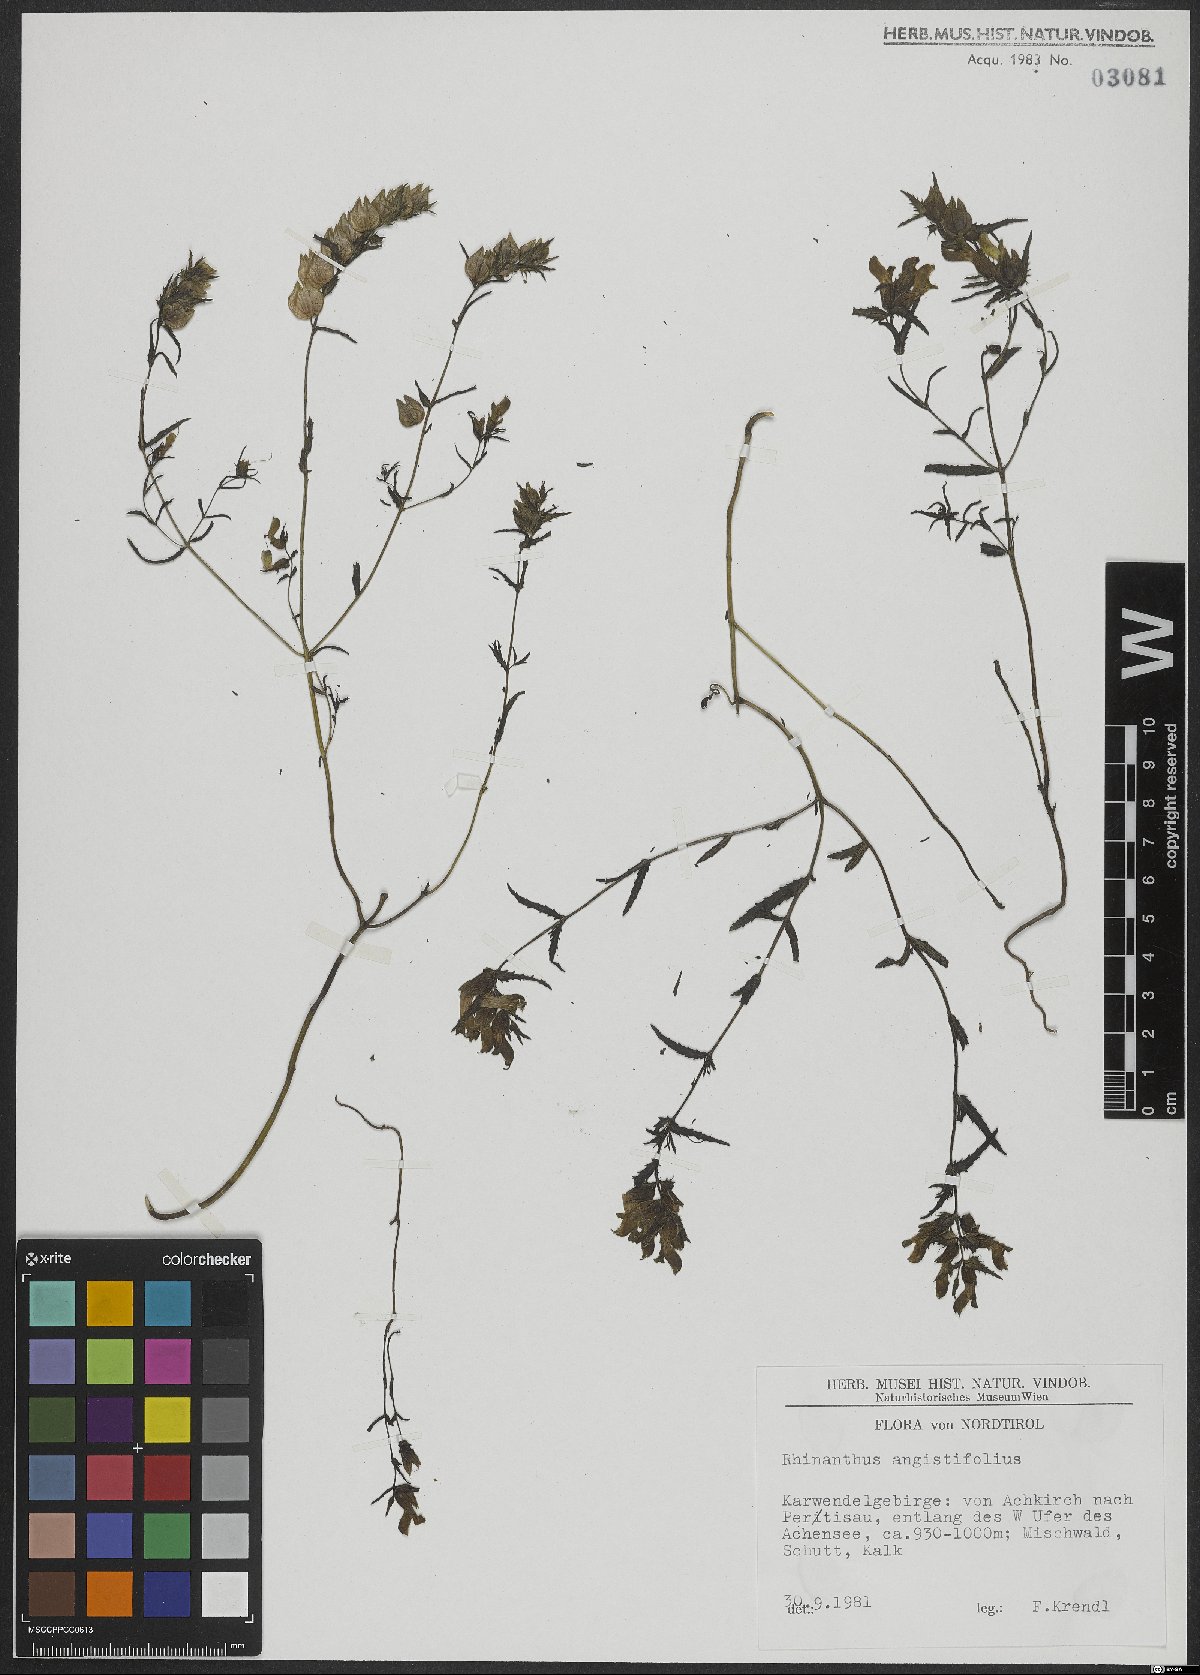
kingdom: Plantae
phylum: Tracheophyta
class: Magnoliopsida
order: Lamiales
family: Orobanchaceae
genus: Rhinanthus
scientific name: Rhinanthus glacialis
